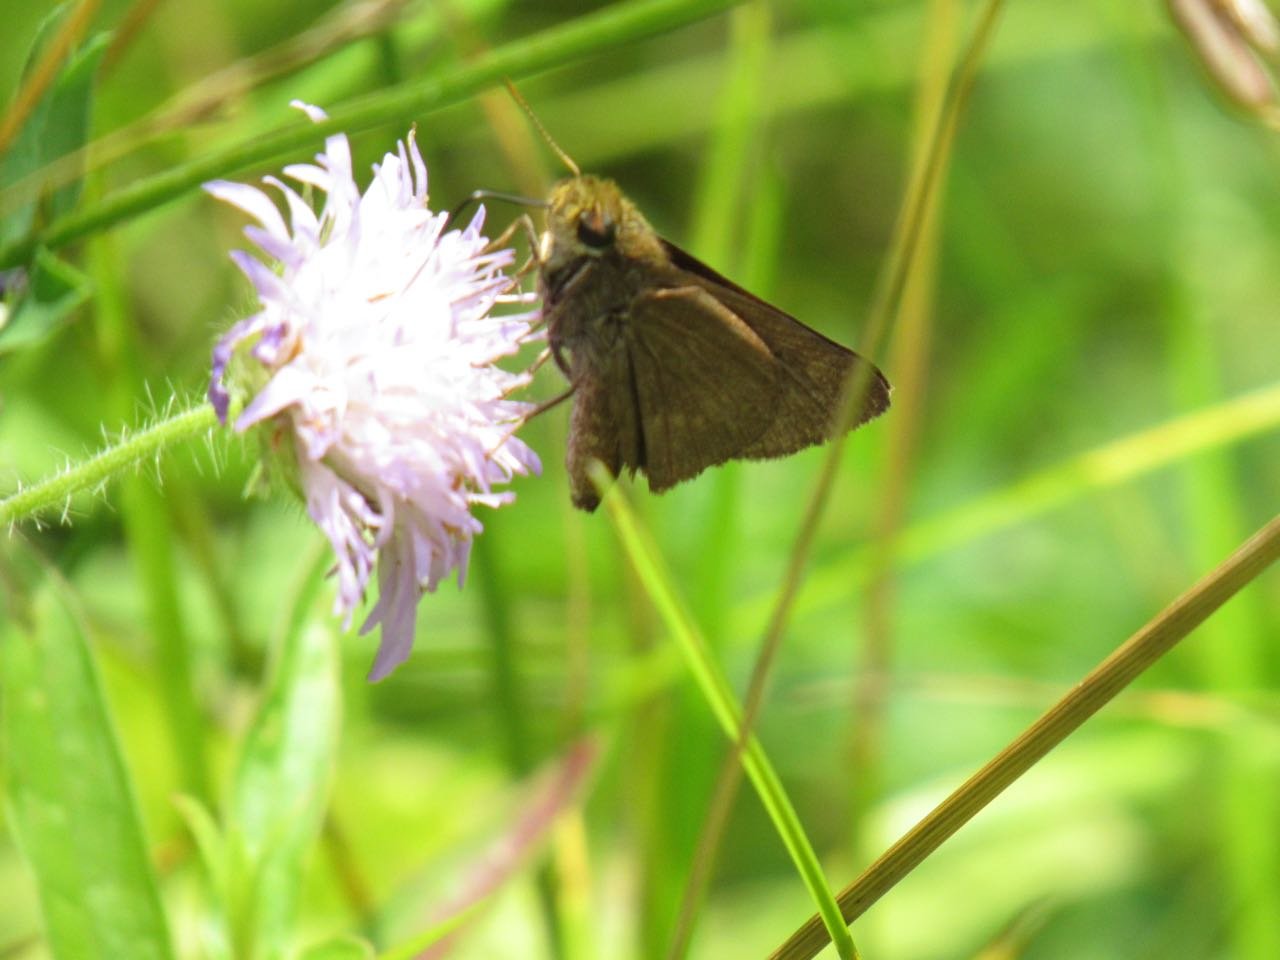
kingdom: Animalia
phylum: Arthropoda
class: Insecta
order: Lepidoptera
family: Hesperiidae
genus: Polites
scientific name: Polites egeremet
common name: Northern Broken-Dash
